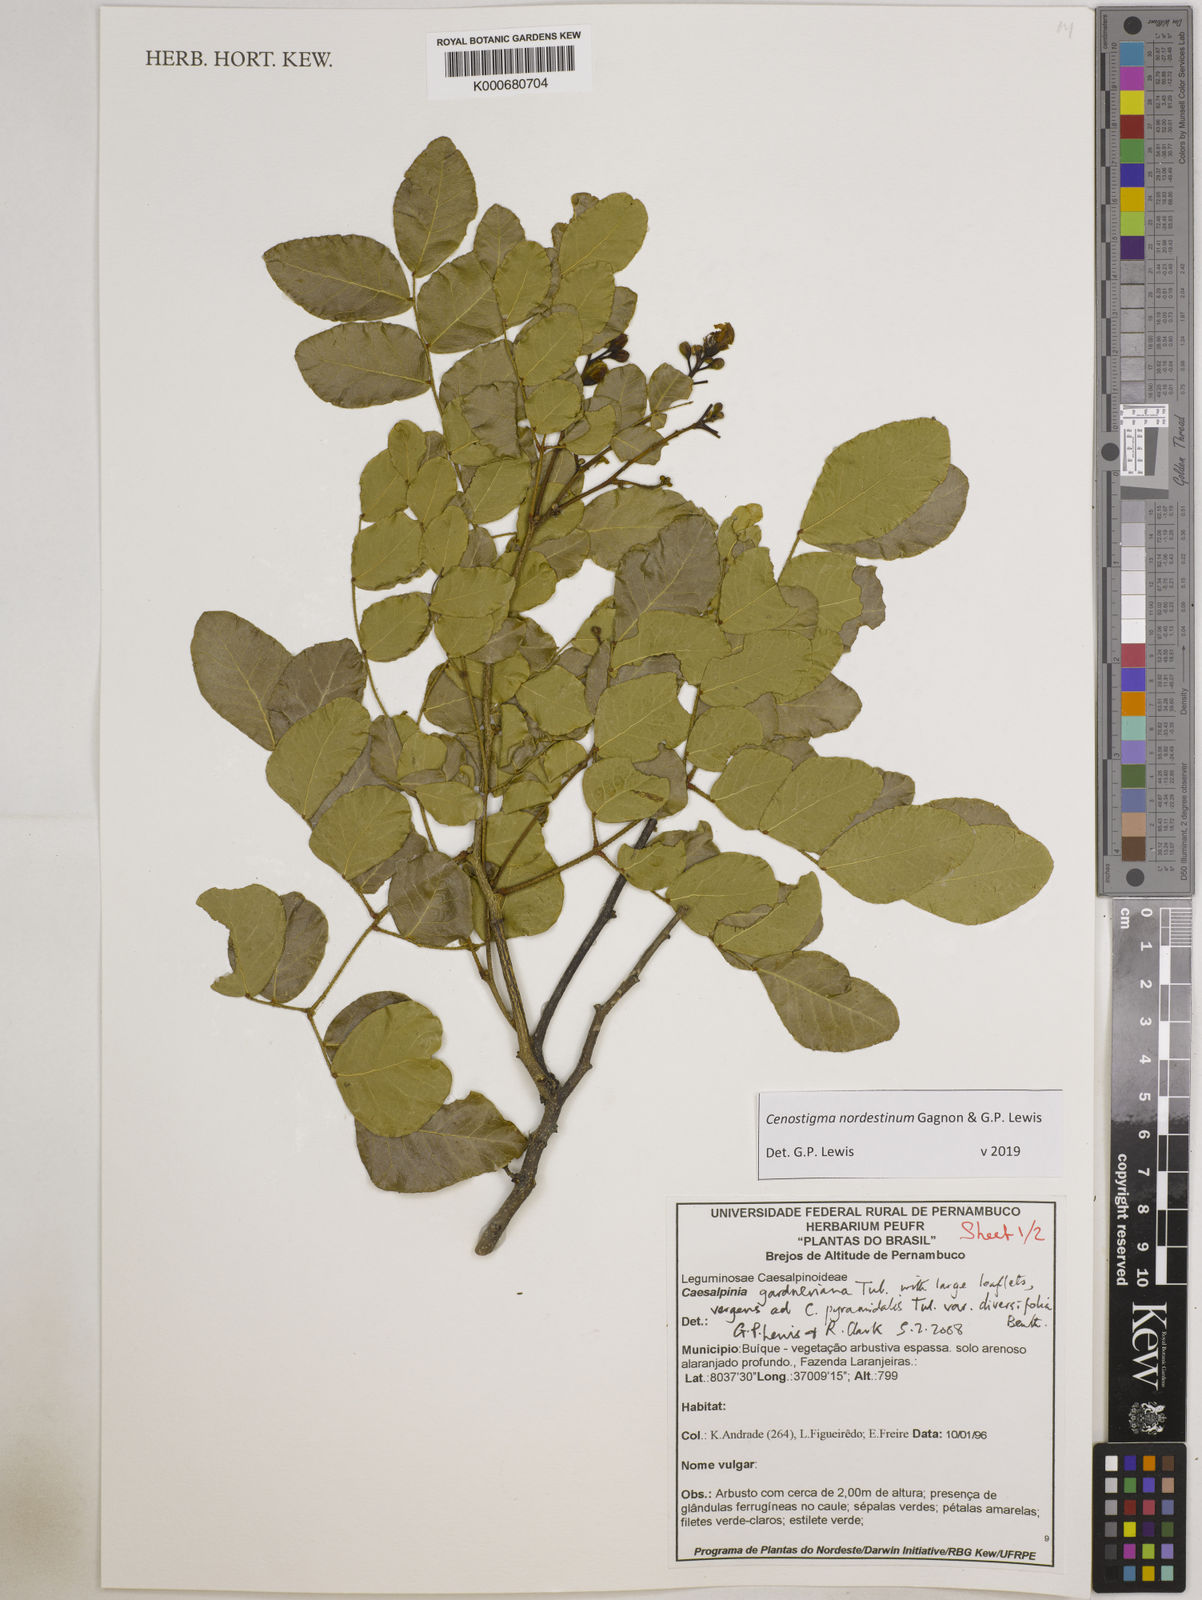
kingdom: Plantae
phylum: Tracheophyta
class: Magnoliopsida
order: Fabales
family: Fabaceae
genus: Cenostigma
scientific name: Cenostigma nordestinum
